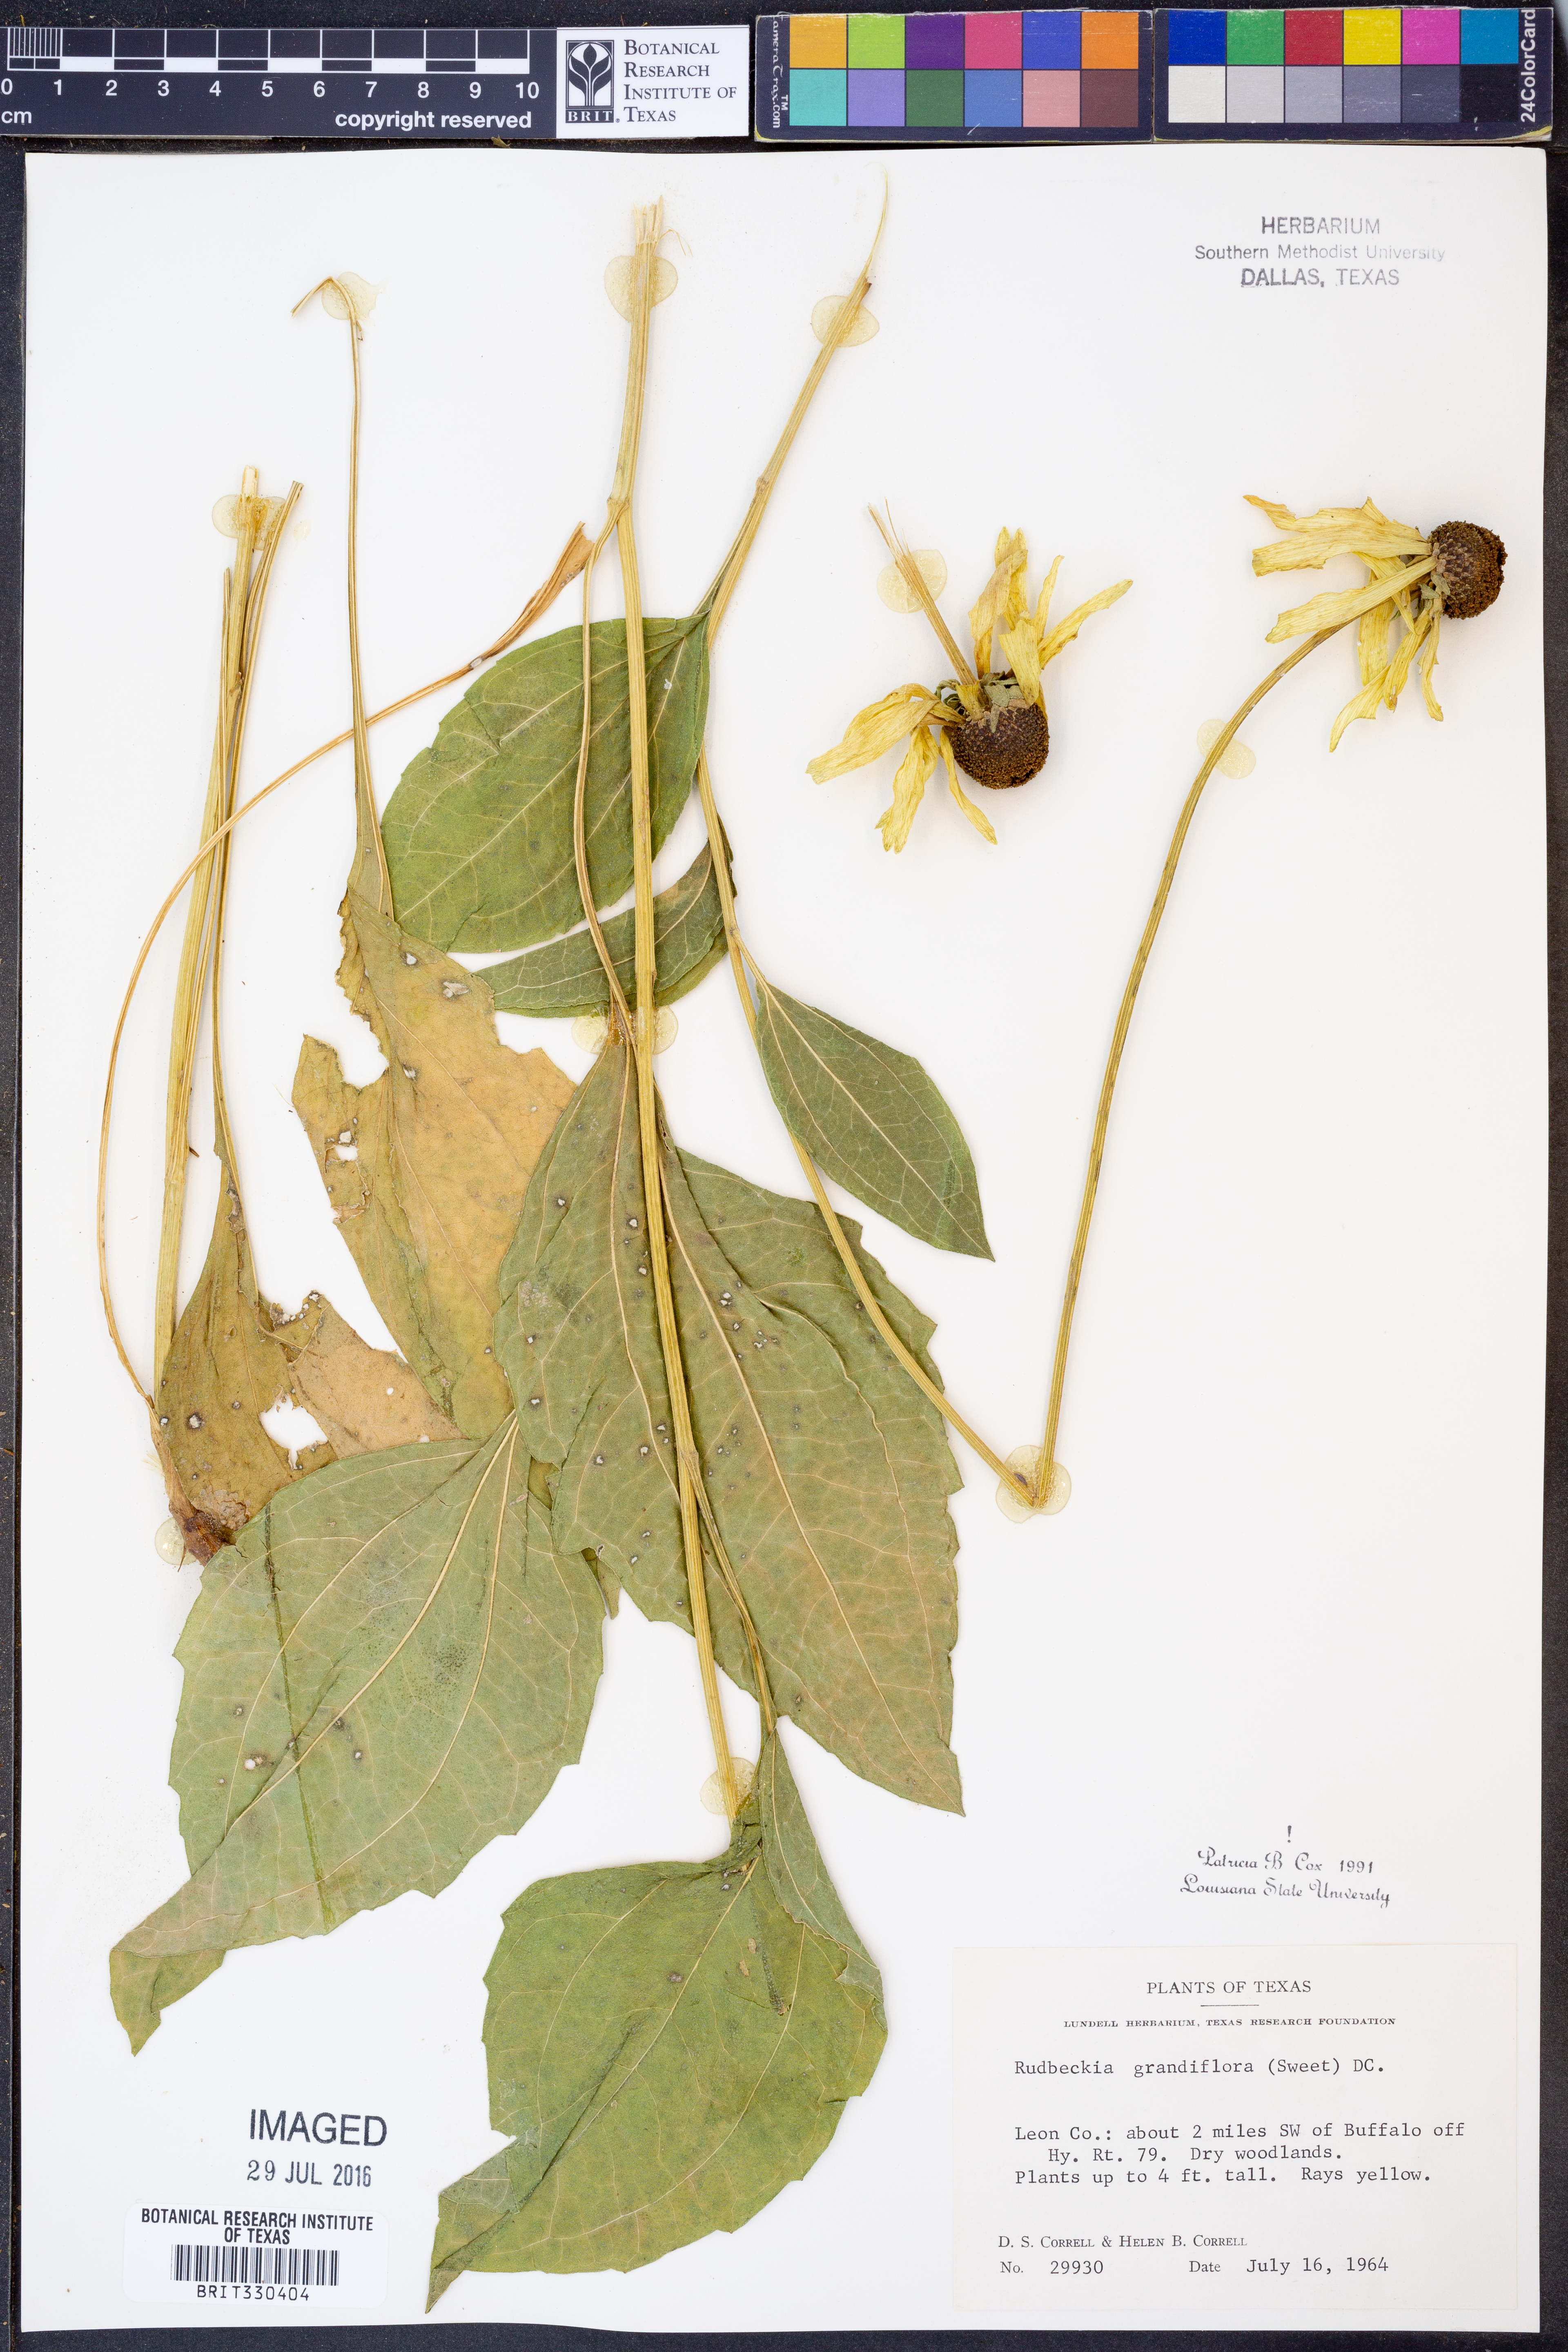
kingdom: Plantae
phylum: Tracheophyta
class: Magnoliopsida
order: Asterales
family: Asteraceae
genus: Rudbeckia
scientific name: Rudbeckia grandiflora
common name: Large-flowered coneflower
